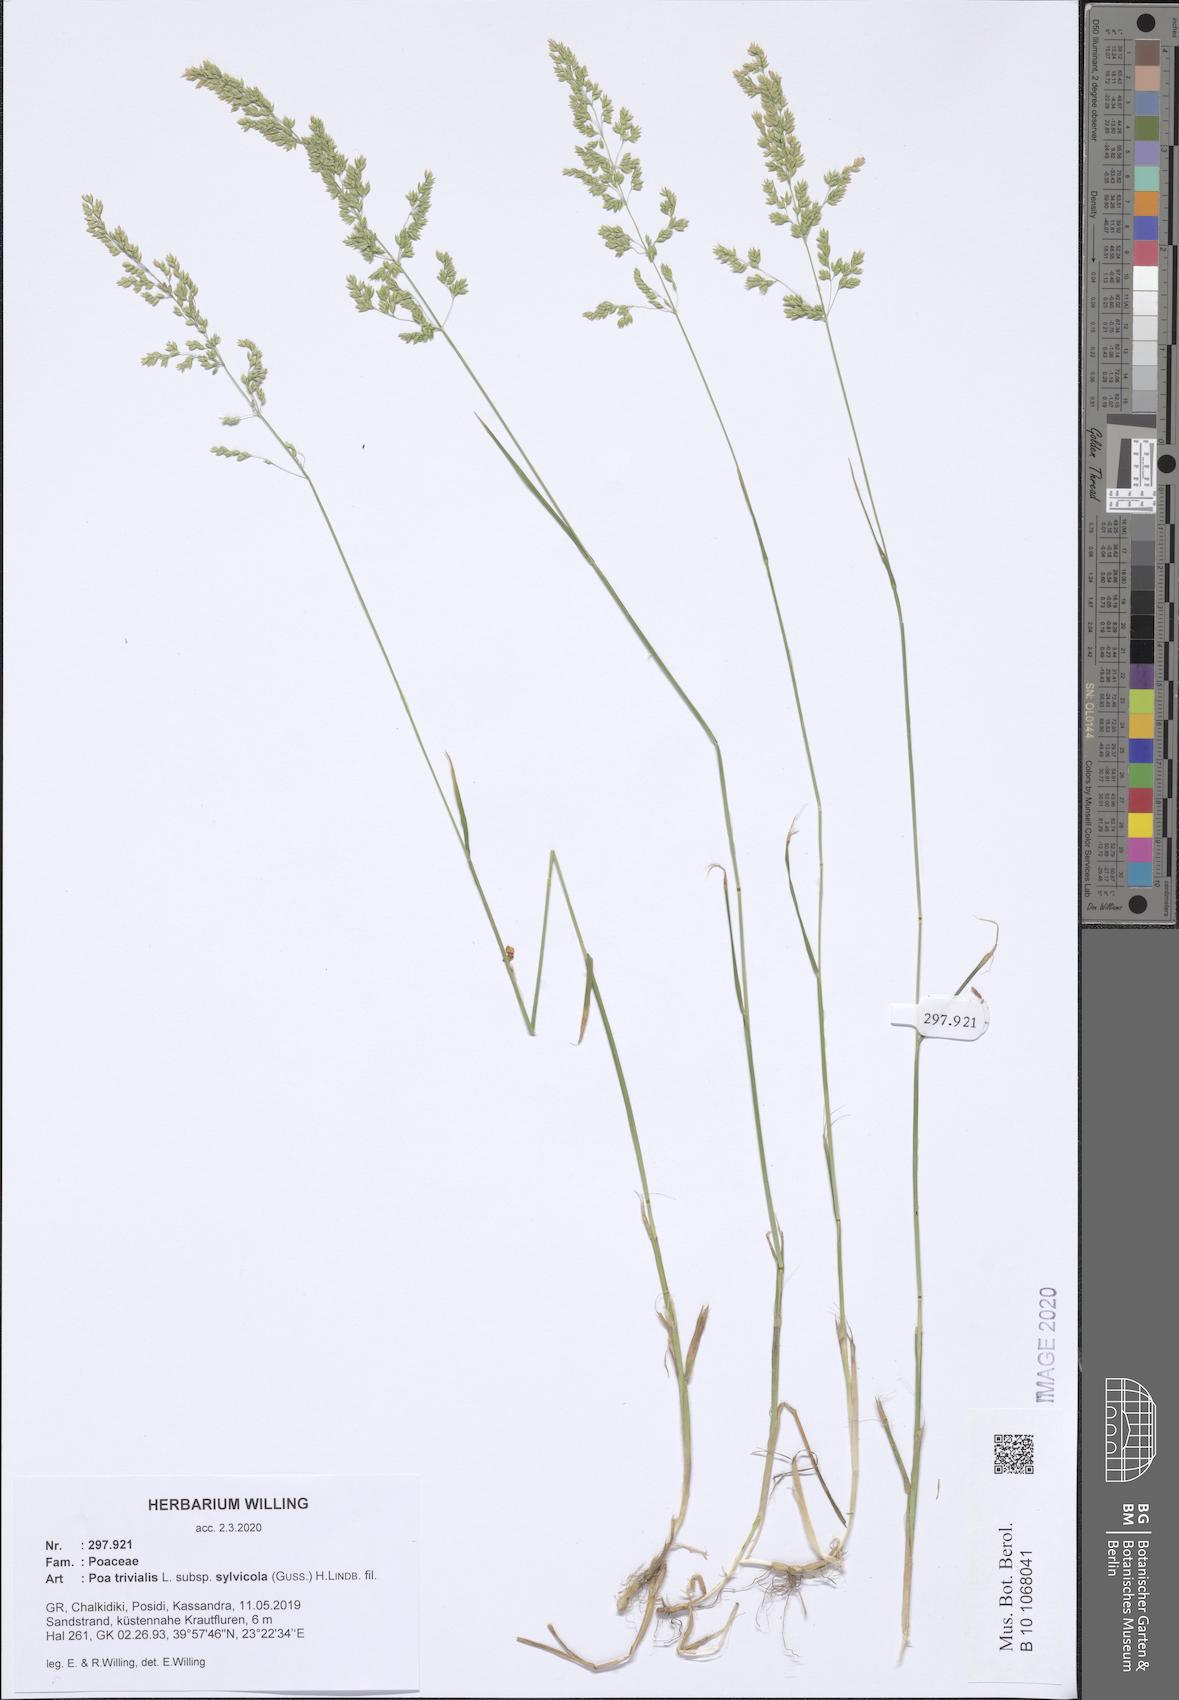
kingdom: Plantae
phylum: Tracheophyta
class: Liliopsida
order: Poales
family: Poaceae
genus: Poa
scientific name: Poa trivialis
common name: Rough bluegrass
